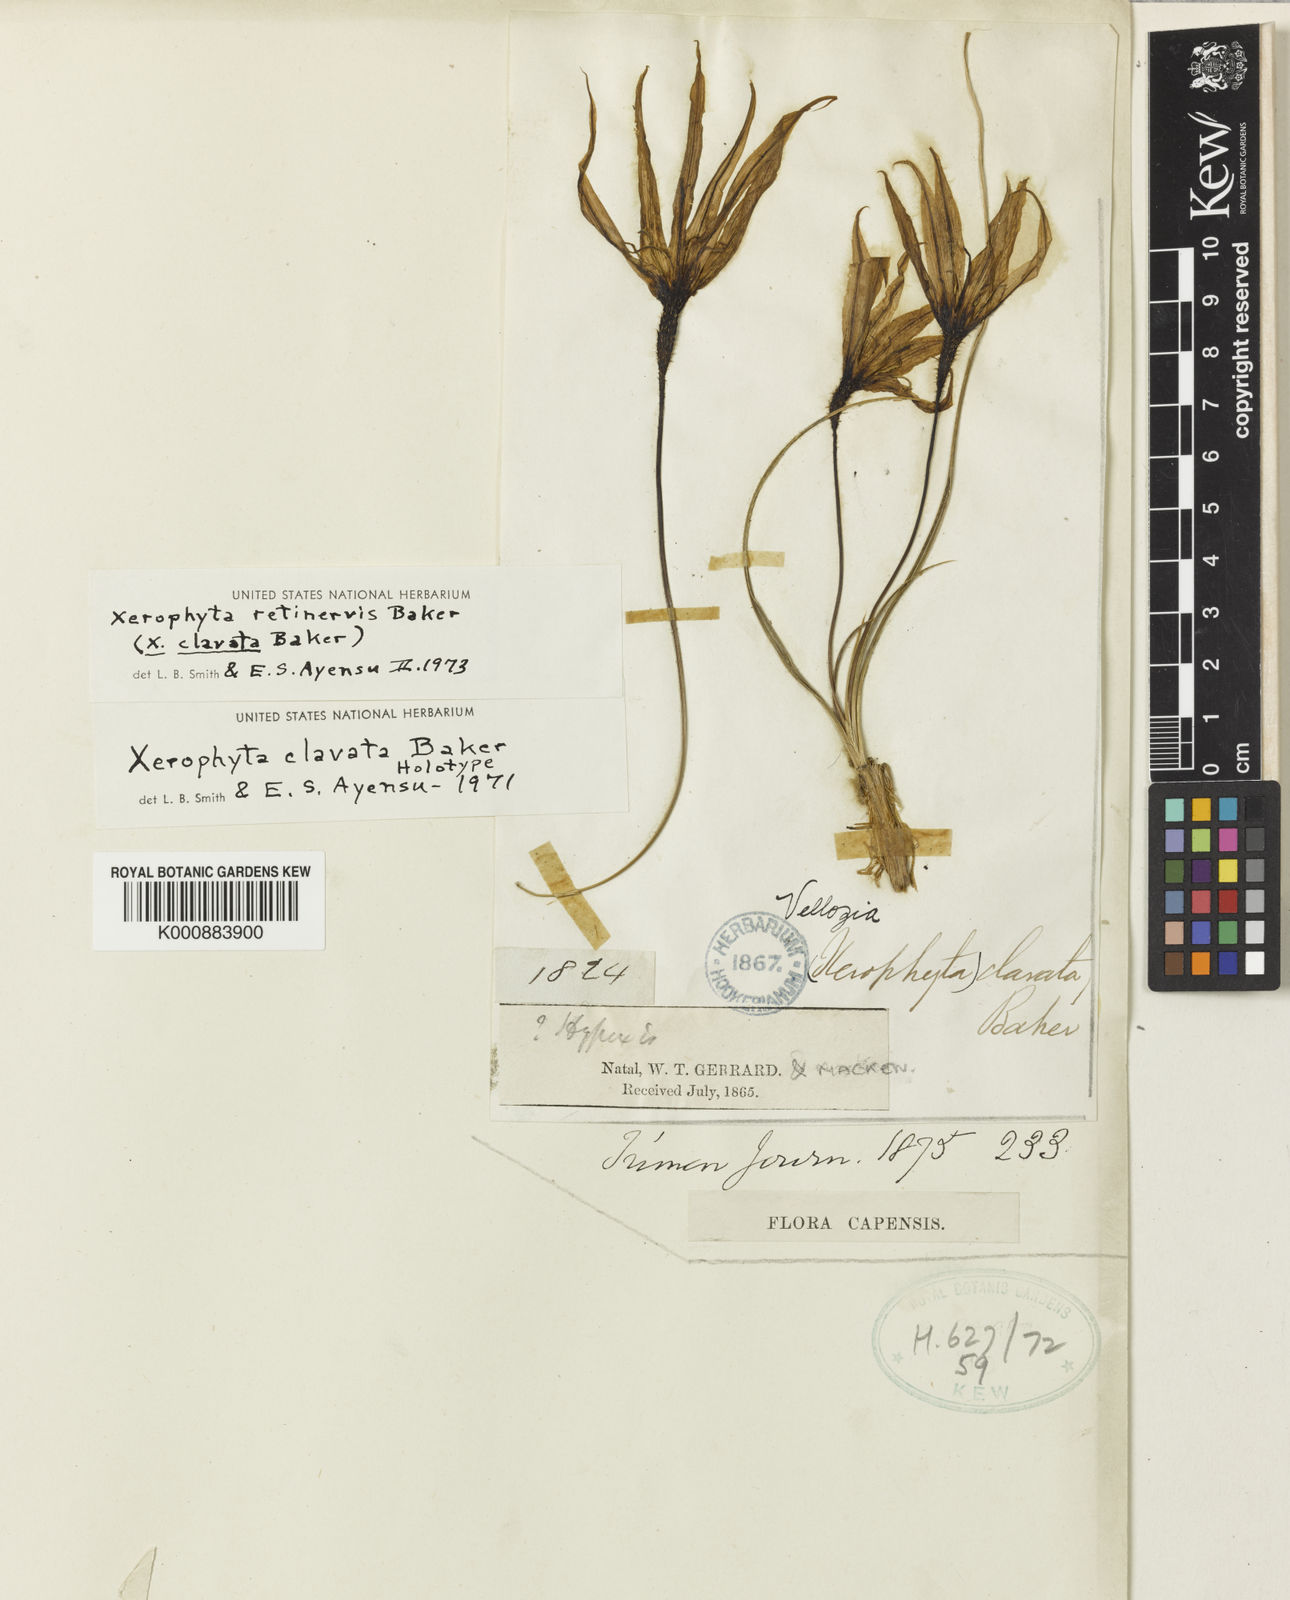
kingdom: Plantae
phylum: Tracheophyta
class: Liliopsida
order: Pandanales
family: Velloziaceae
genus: Xerophyta
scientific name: Xerophyta retinervis
